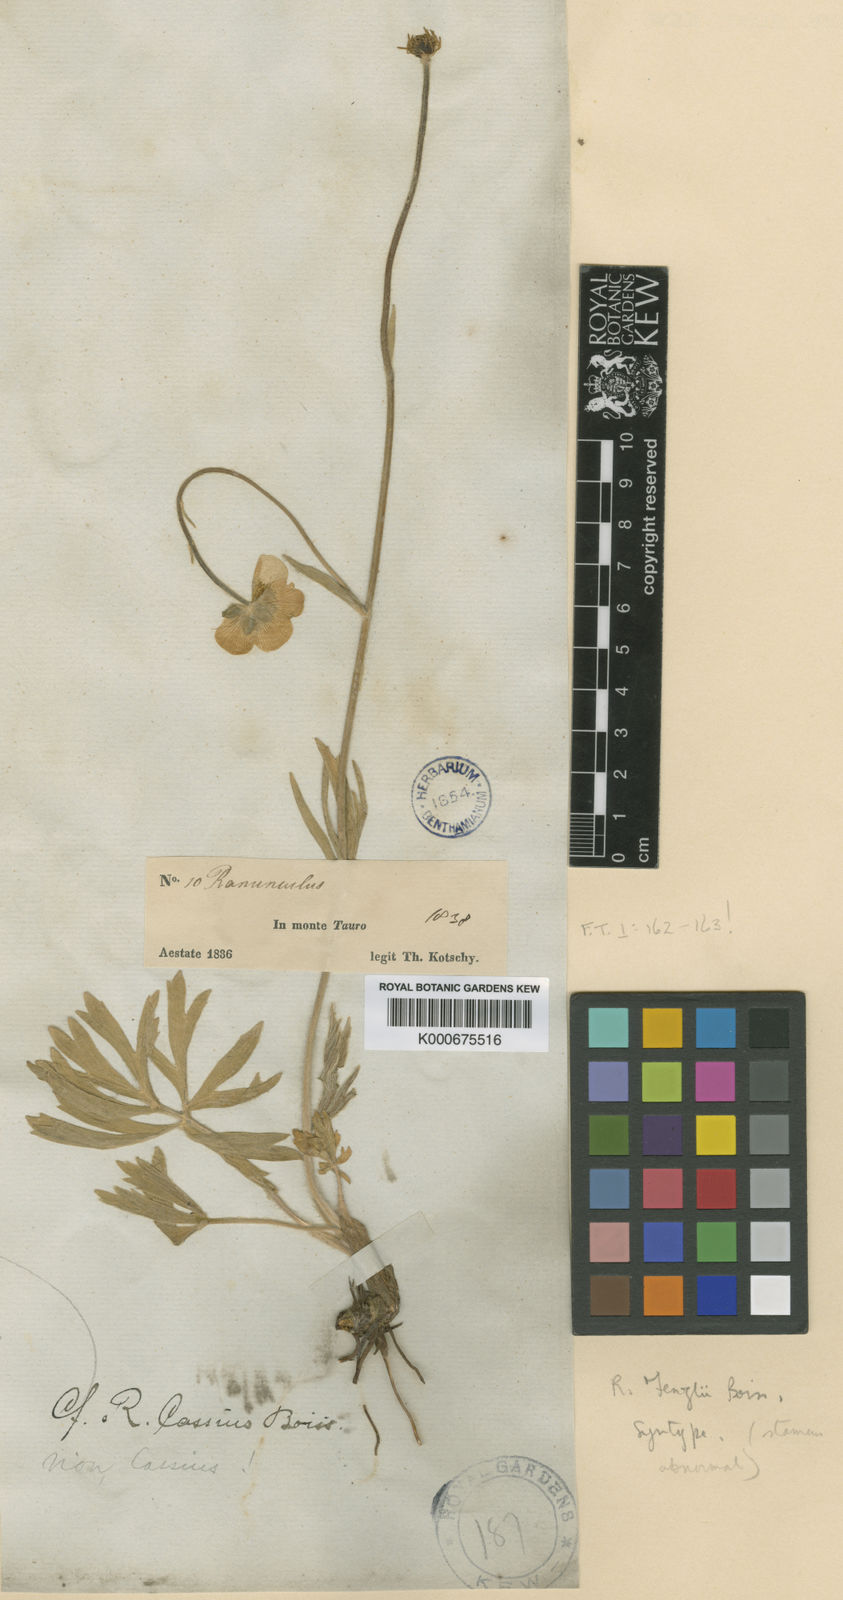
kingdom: Plantae
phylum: Tracheophyta
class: Magnoliopsida
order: Ranunculales
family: Ranunculaceae
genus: Ranunculus
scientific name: Ranunculus fenzlii
